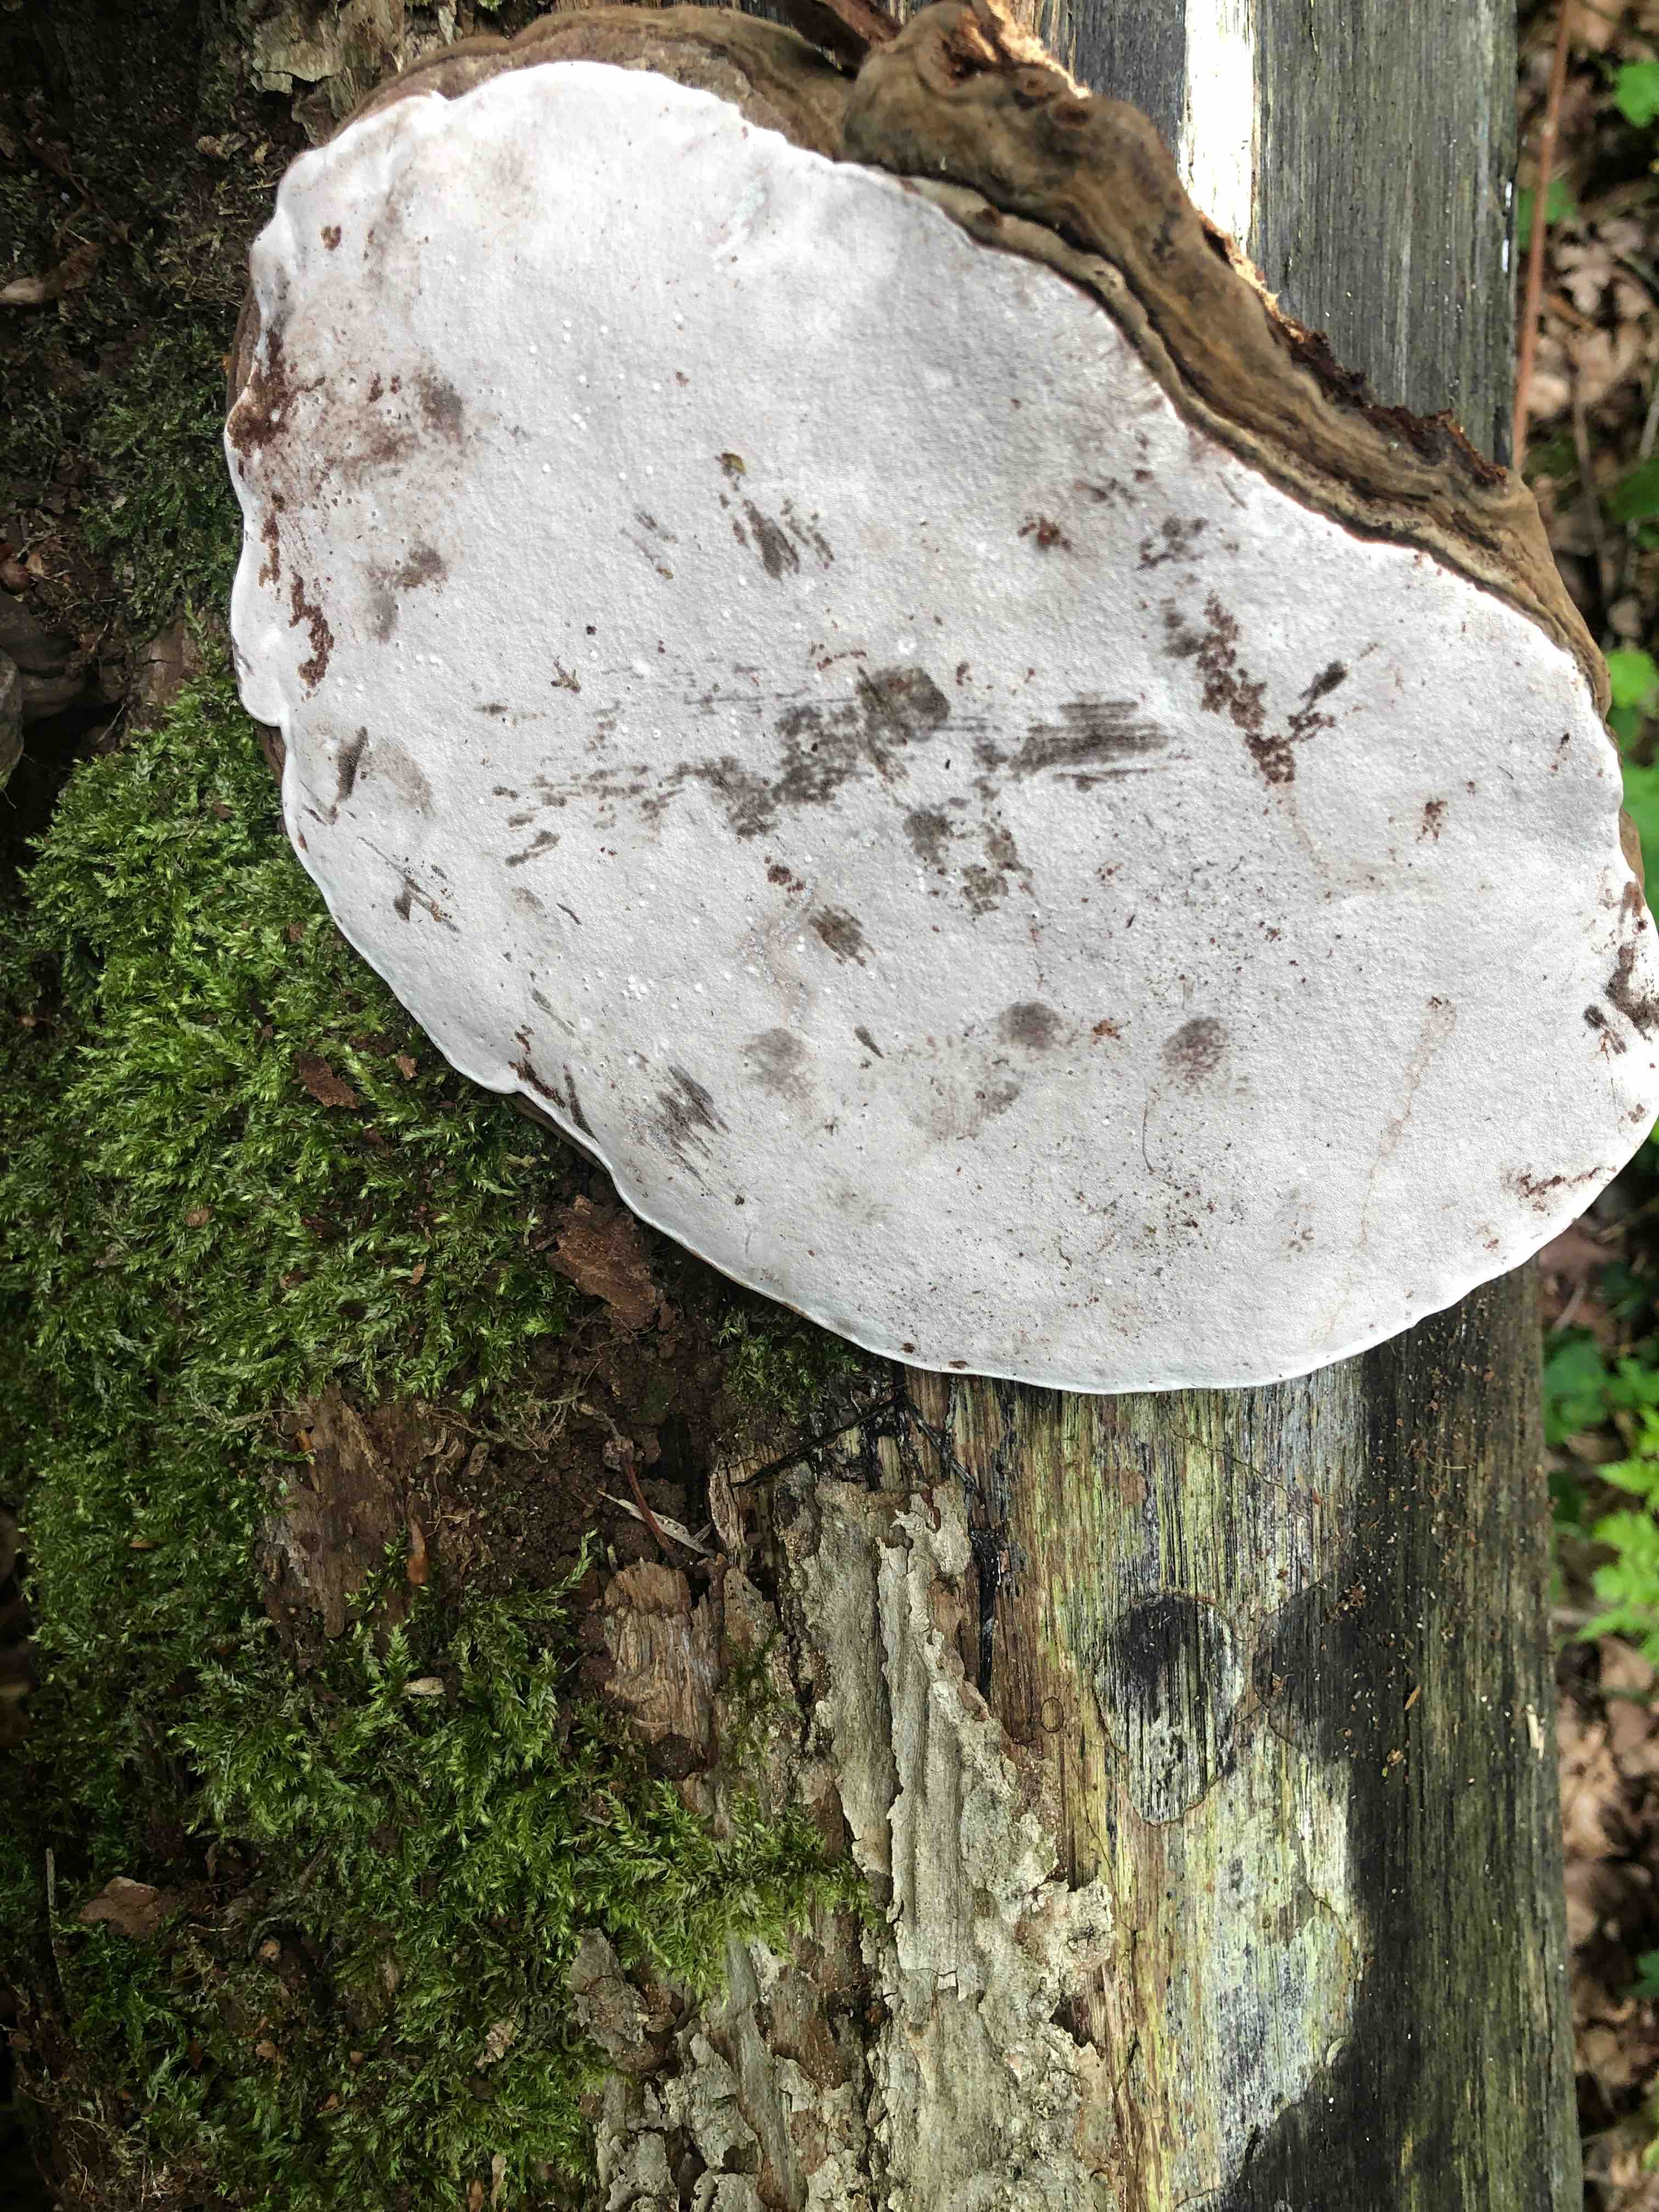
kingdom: Fungi
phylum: Basidiomycota
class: Agaricomycetes
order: Polyporales
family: Polyporaceae
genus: Ganoderma
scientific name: Ganoderma applanatum
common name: flad lakporesvamp
